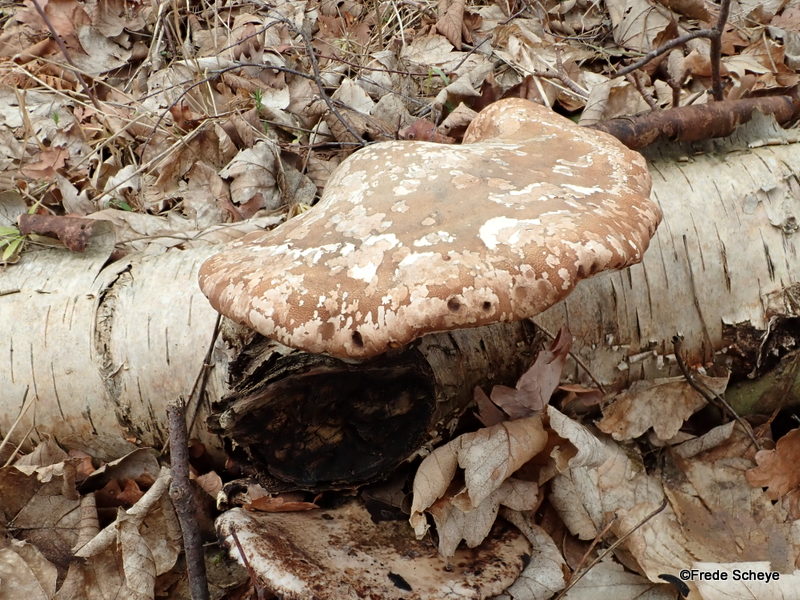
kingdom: Fungi
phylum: Basidiomycota
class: Agaricomycetes
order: Polyporales
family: Fomitopsidaceae
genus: Fomitopsis
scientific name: Fomitopsis betulina
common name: birkeporesvamp
